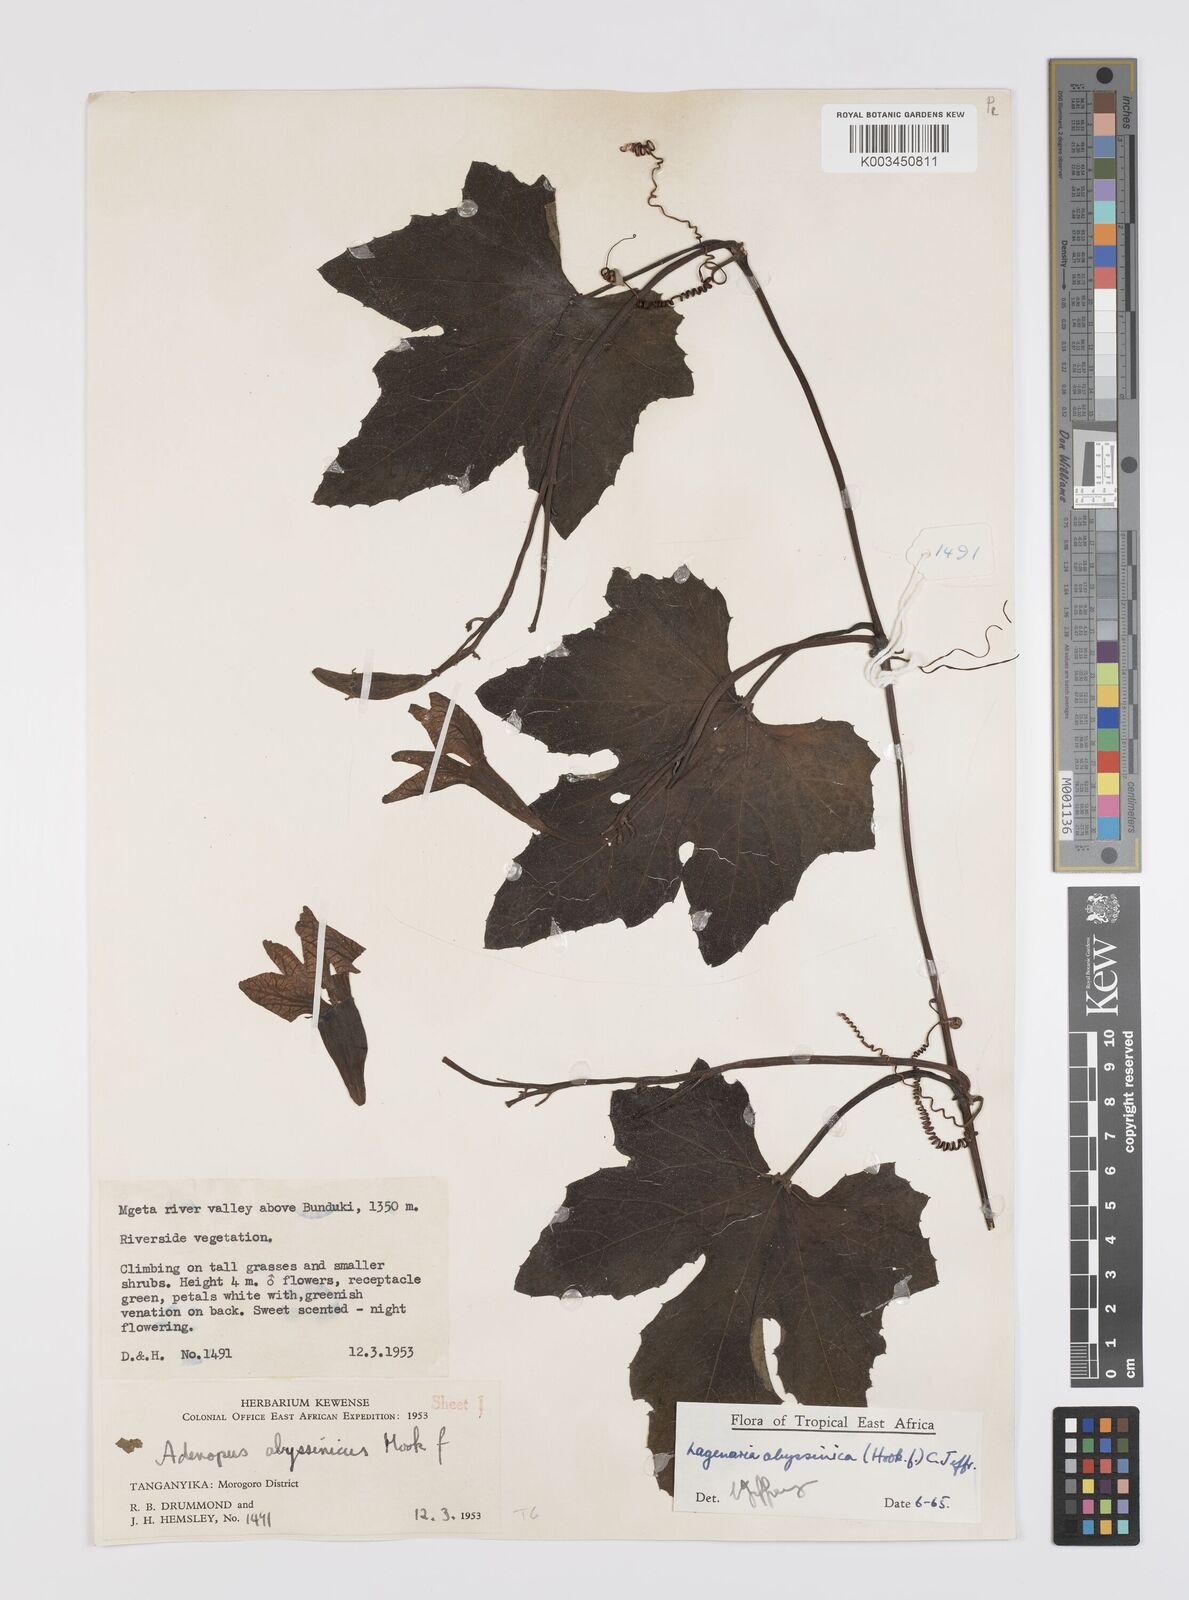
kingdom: Plantae
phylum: Tracheophyta
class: Magnoliopsida
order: Cucurbitales
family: Cucurbitaceae
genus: Lagenaria
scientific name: Lagenaria abyssinica
